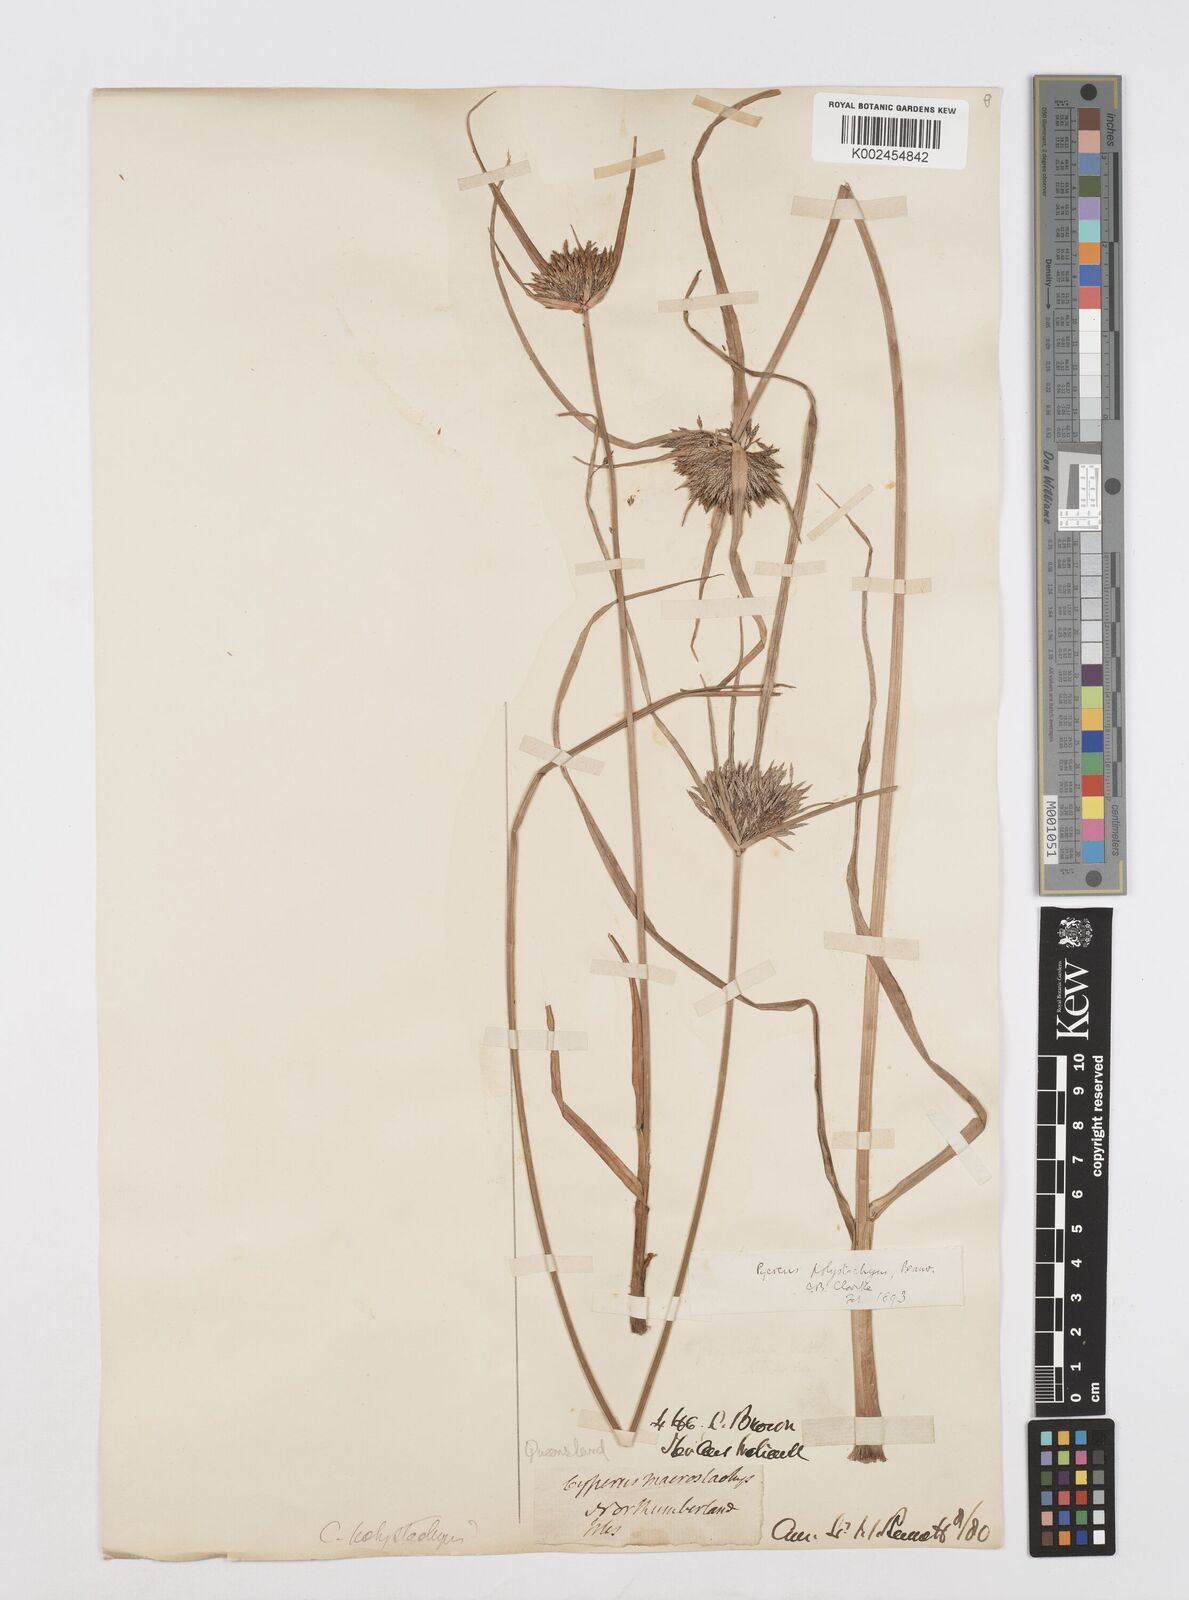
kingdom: Plantae
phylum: Tracheophyta
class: Liliopsida
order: Poales
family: Cyperaceae
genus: Cyperus
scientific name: Cyperus polystachyos
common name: Bunchy flat sedge
